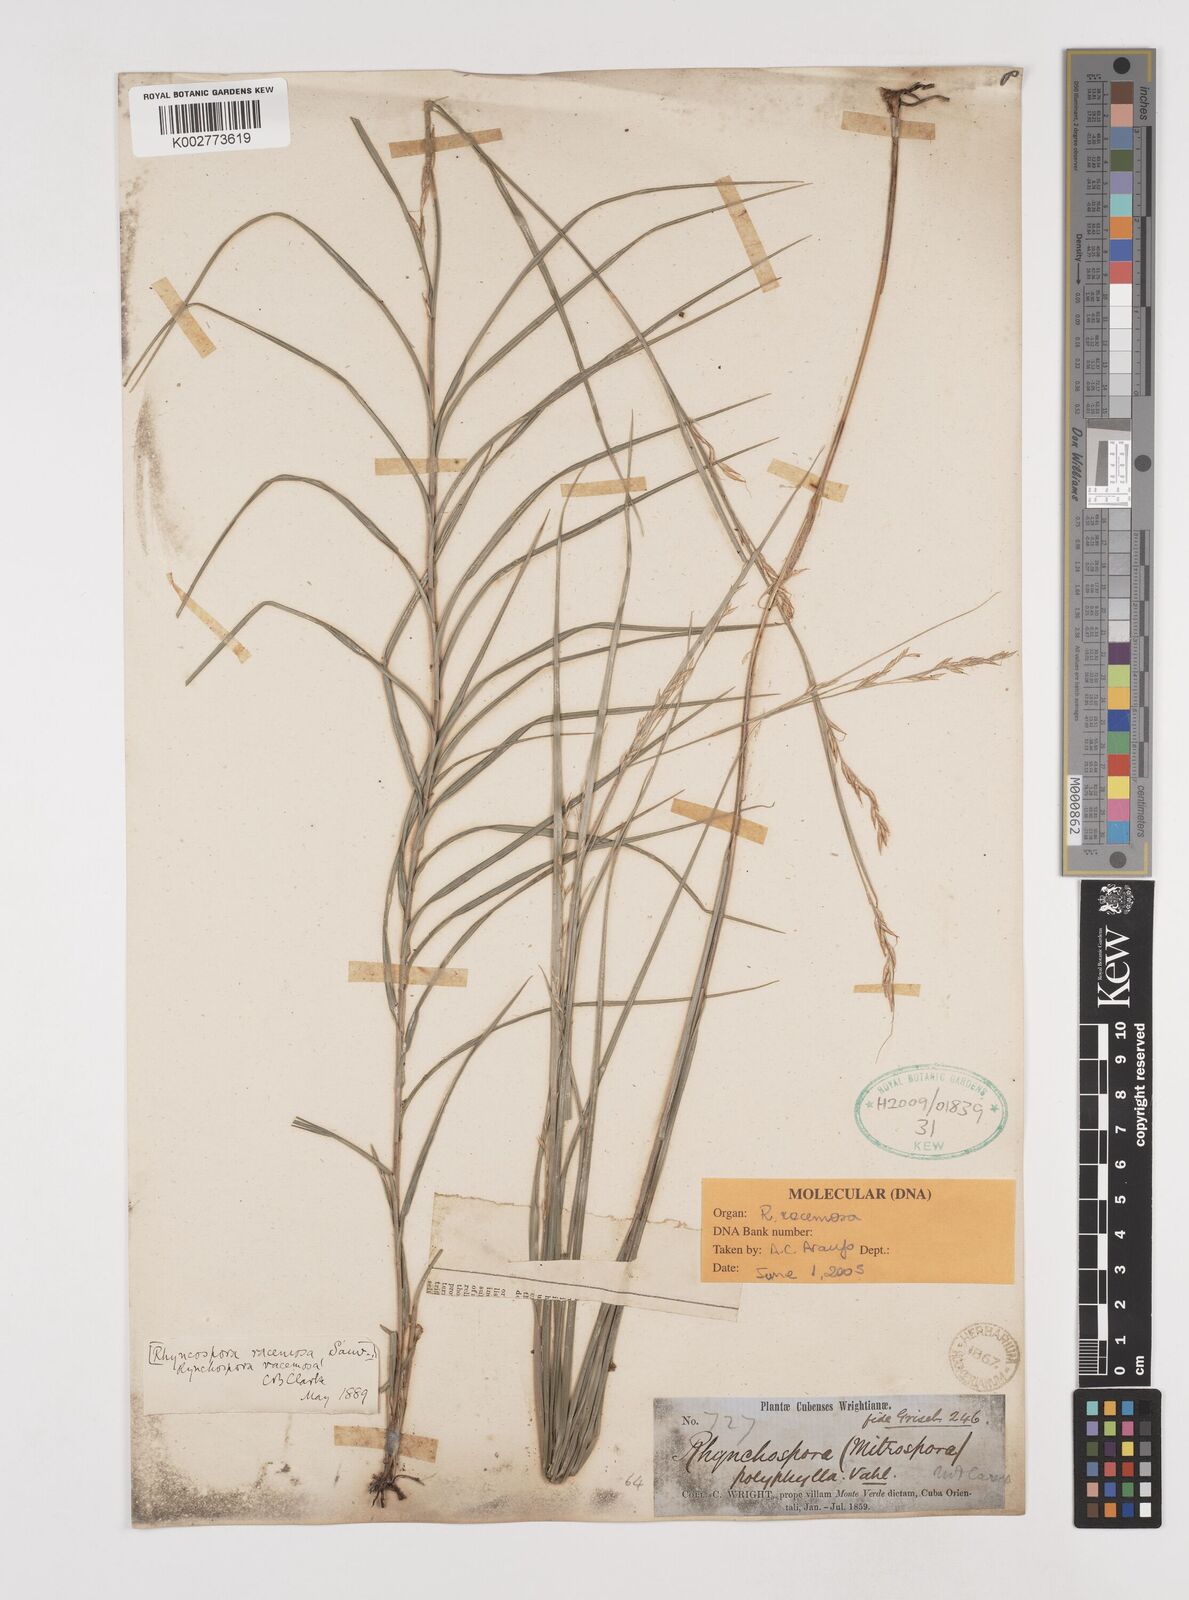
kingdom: Plantae
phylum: Tracheophyta
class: Liliopsida
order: Poales
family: Cyperaceae
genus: Rhynchospora
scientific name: Rhynchospora racemosa
